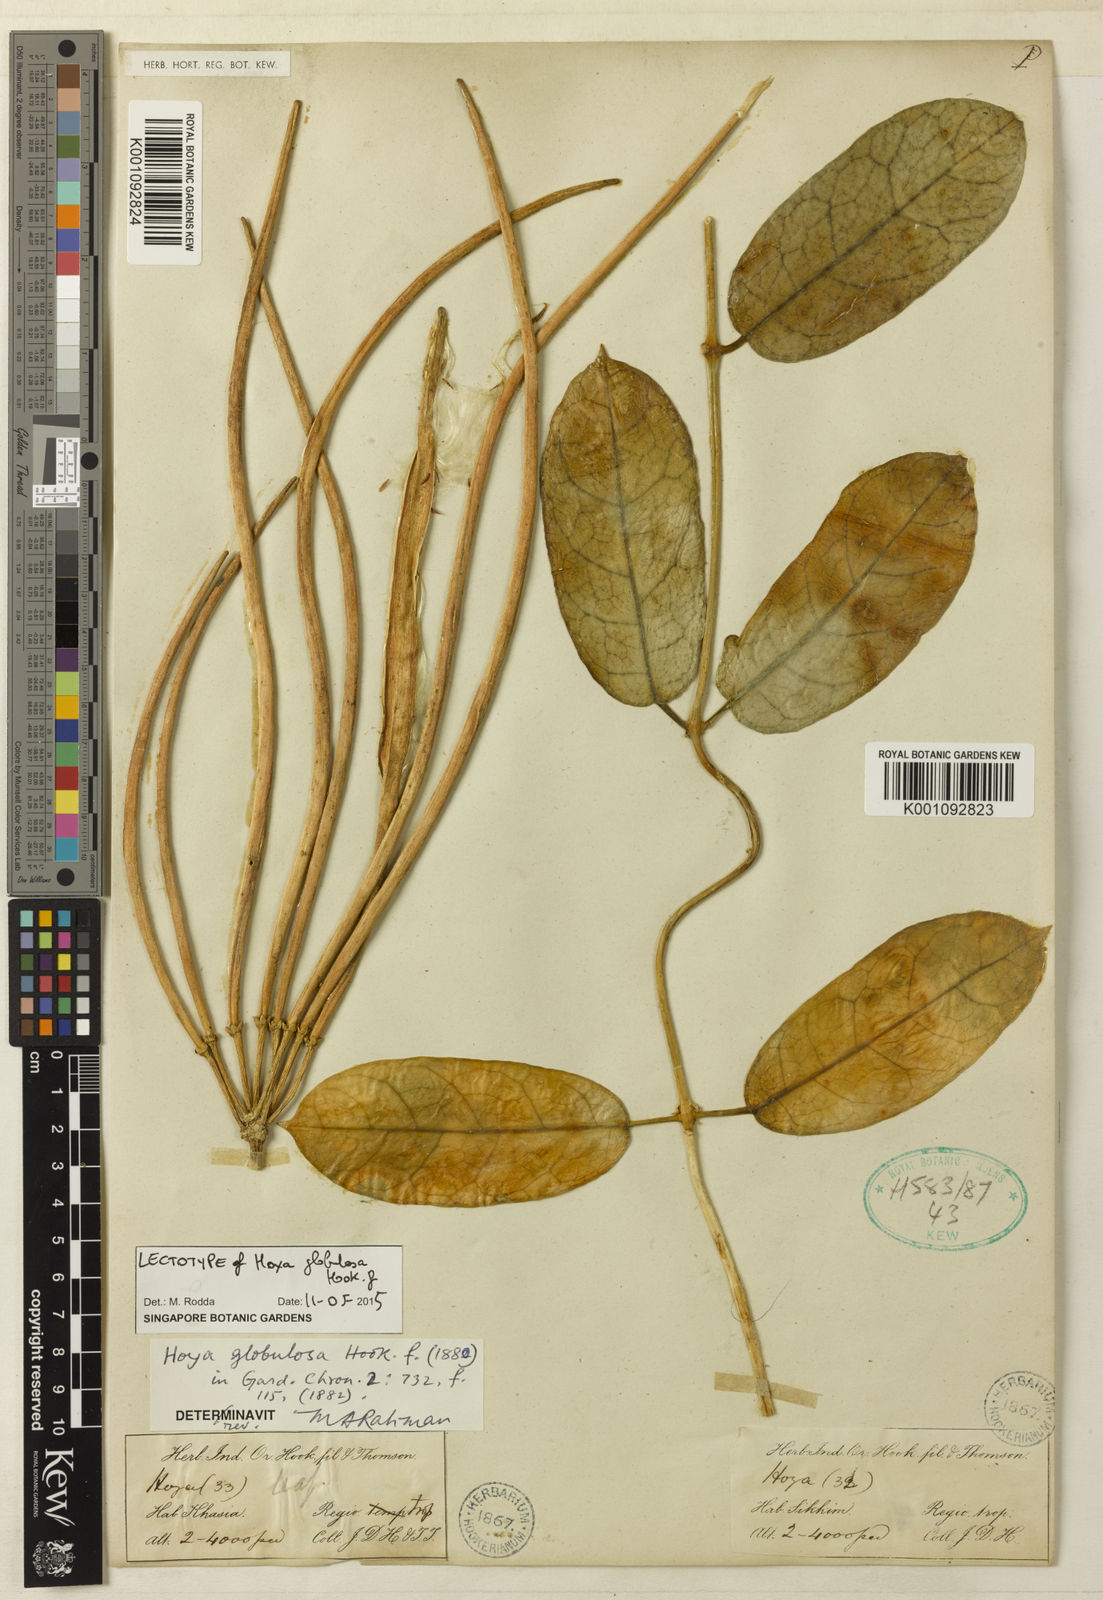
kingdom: Plantae
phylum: Tracheophyta
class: Magnoliopsida
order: Gentianales
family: Apocynaceae
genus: Hoya
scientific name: Hoya globulosa
